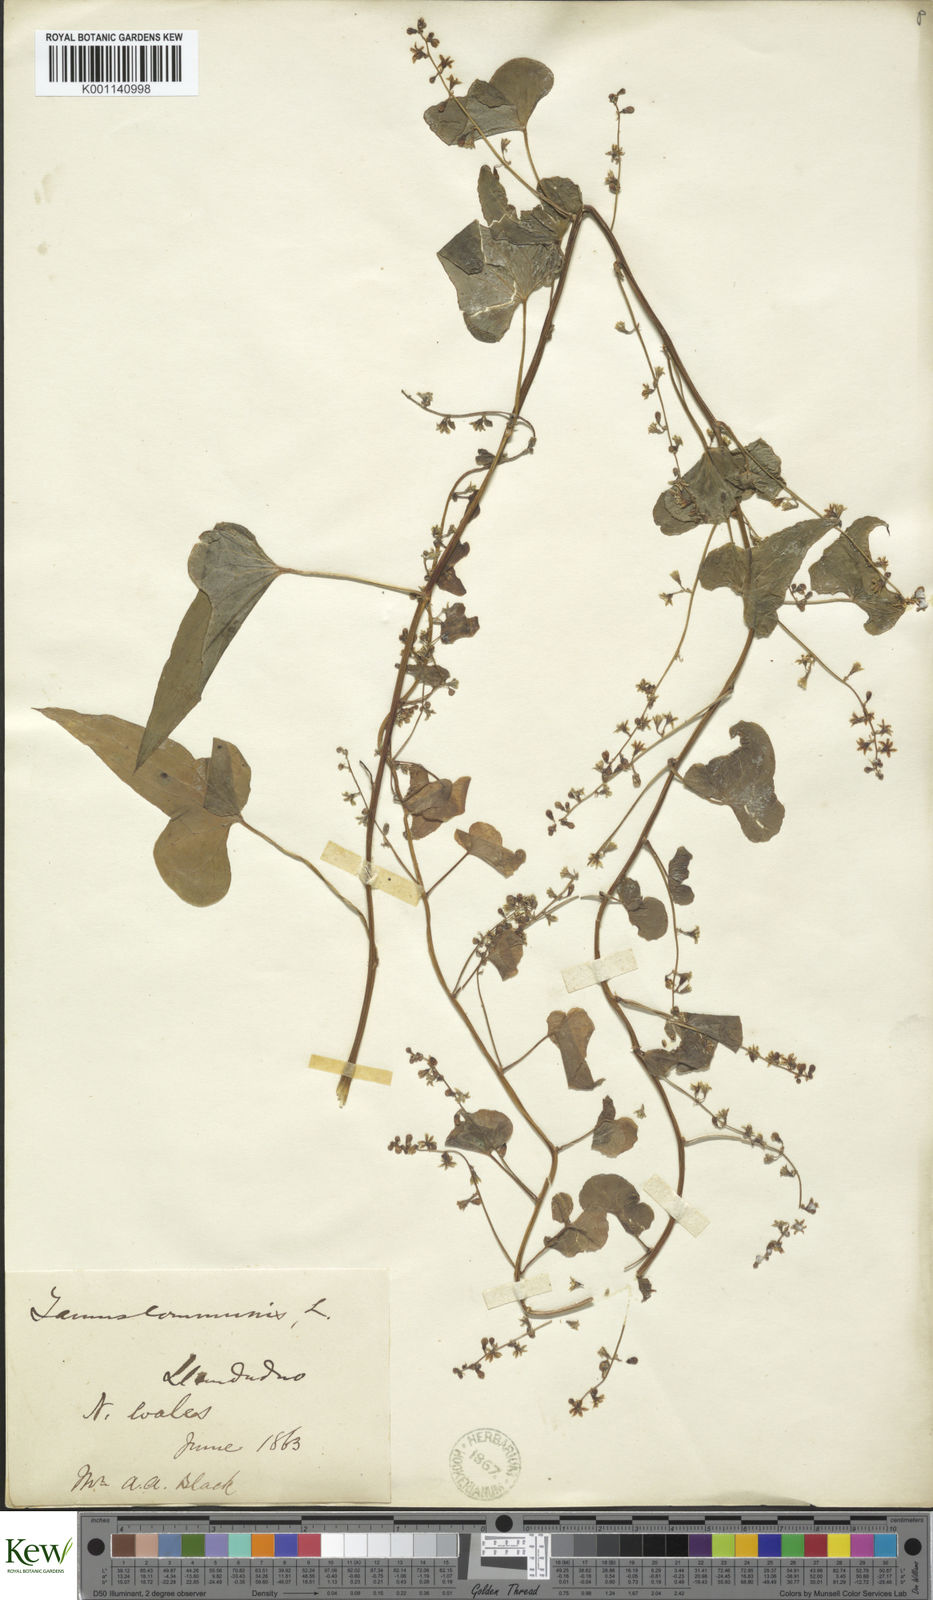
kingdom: Plantae
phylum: Tracheophyta
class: Liliopsida
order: Dioscoreales
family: Dioscoreaceae
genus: Dioscorea
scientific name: Dioscorea communis
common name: Black-bindweed
